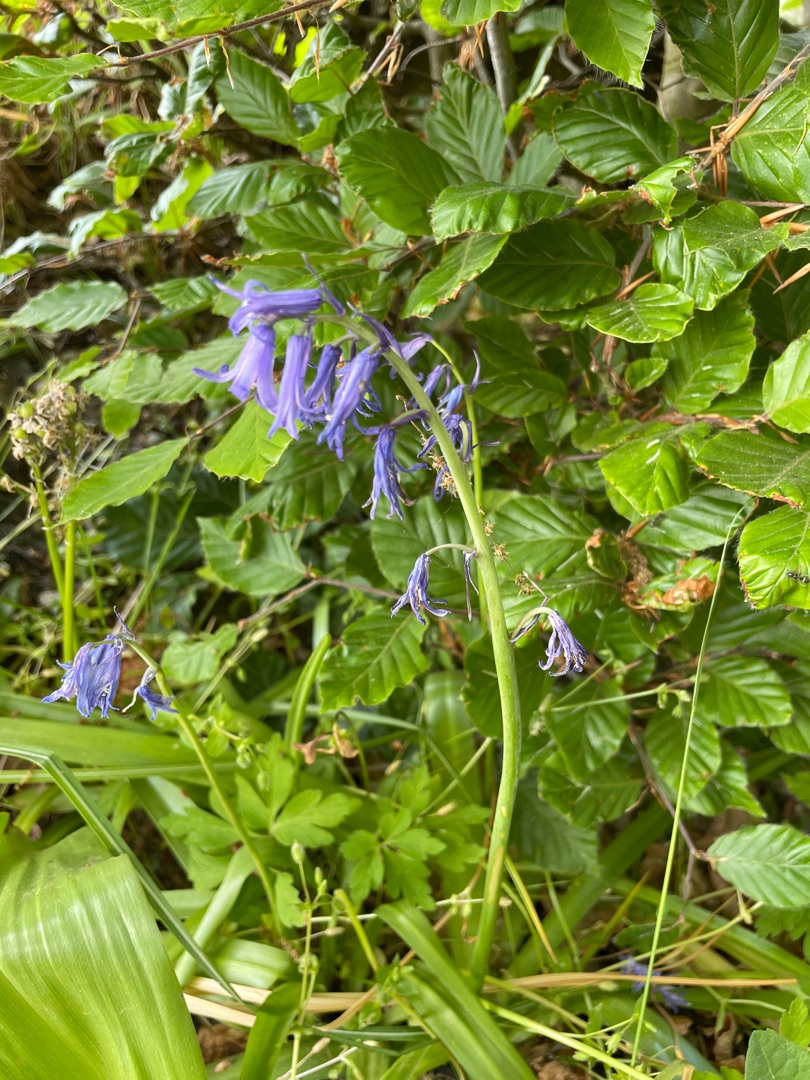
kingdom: Plantae
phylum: Tracheophyta
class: Liliopsida
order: Asparagales
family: Asparagaceae
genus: Hyacinthoides
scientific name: Hyacinthoides non-scripta
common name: Klokke-skilla
